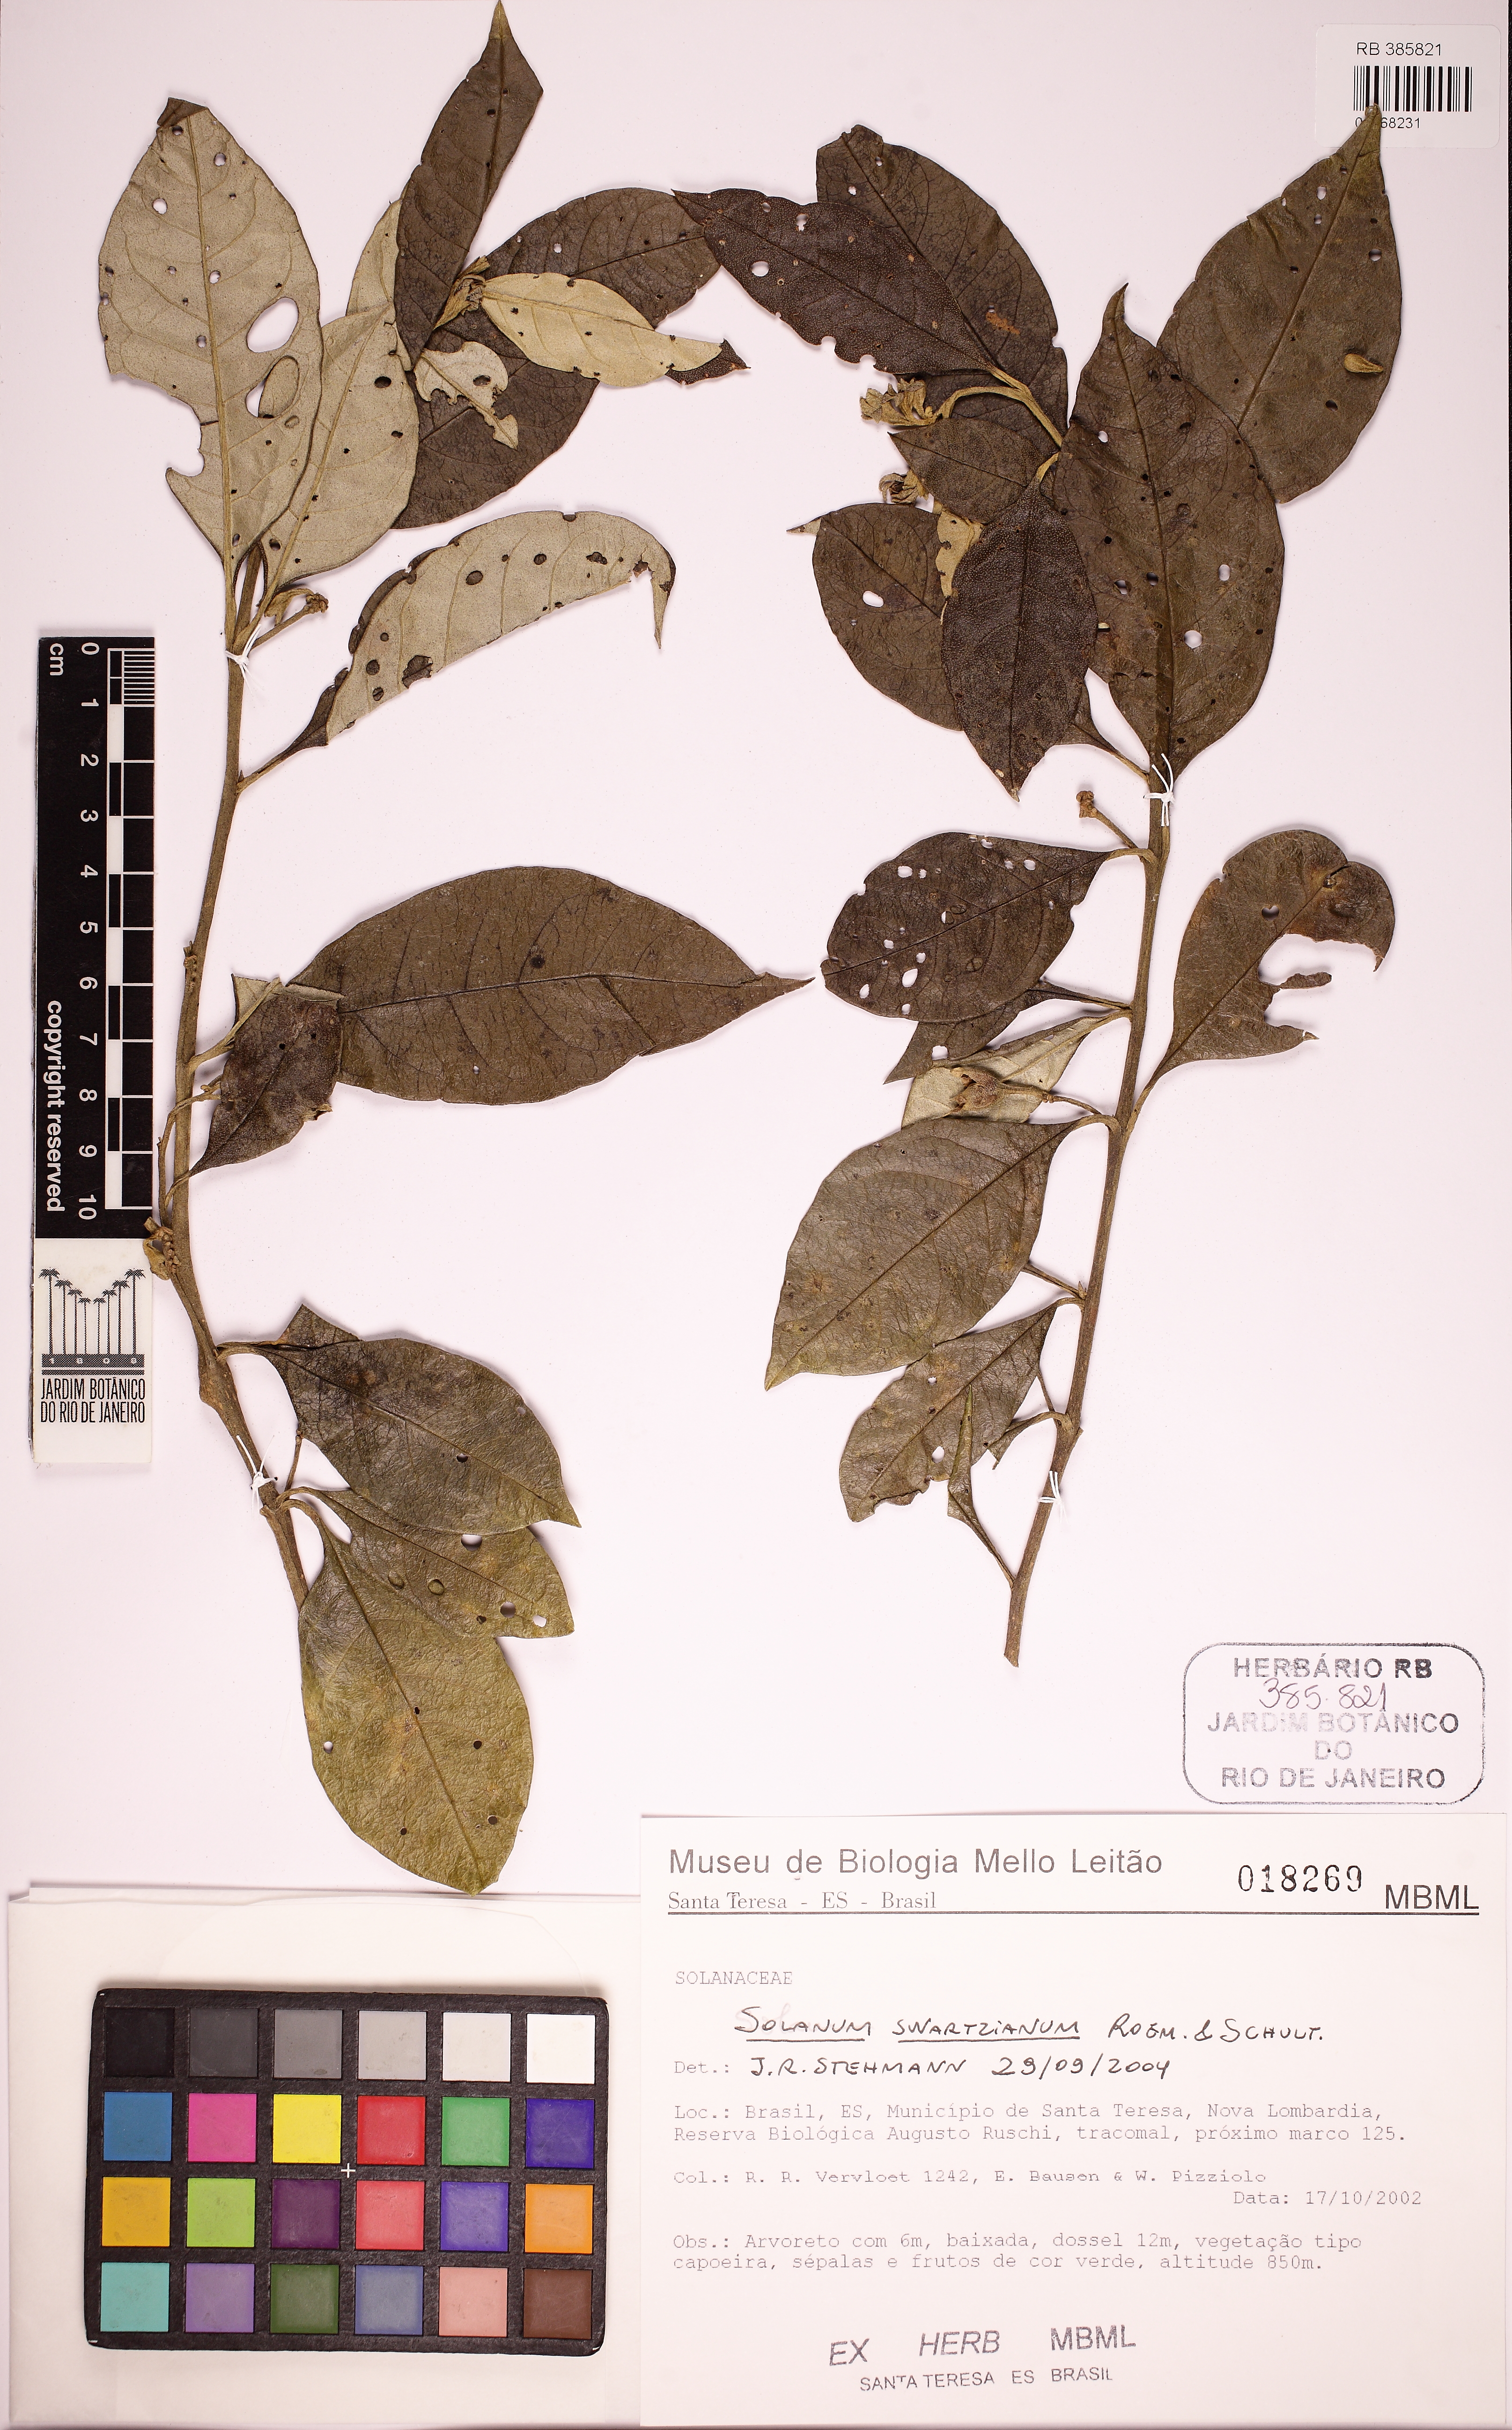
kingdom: Plantae
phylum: Tracheophyta
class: Magnoliopsida
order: Solanales
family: Solanaceae
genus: Solanum
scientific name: Solanum swartzianum
